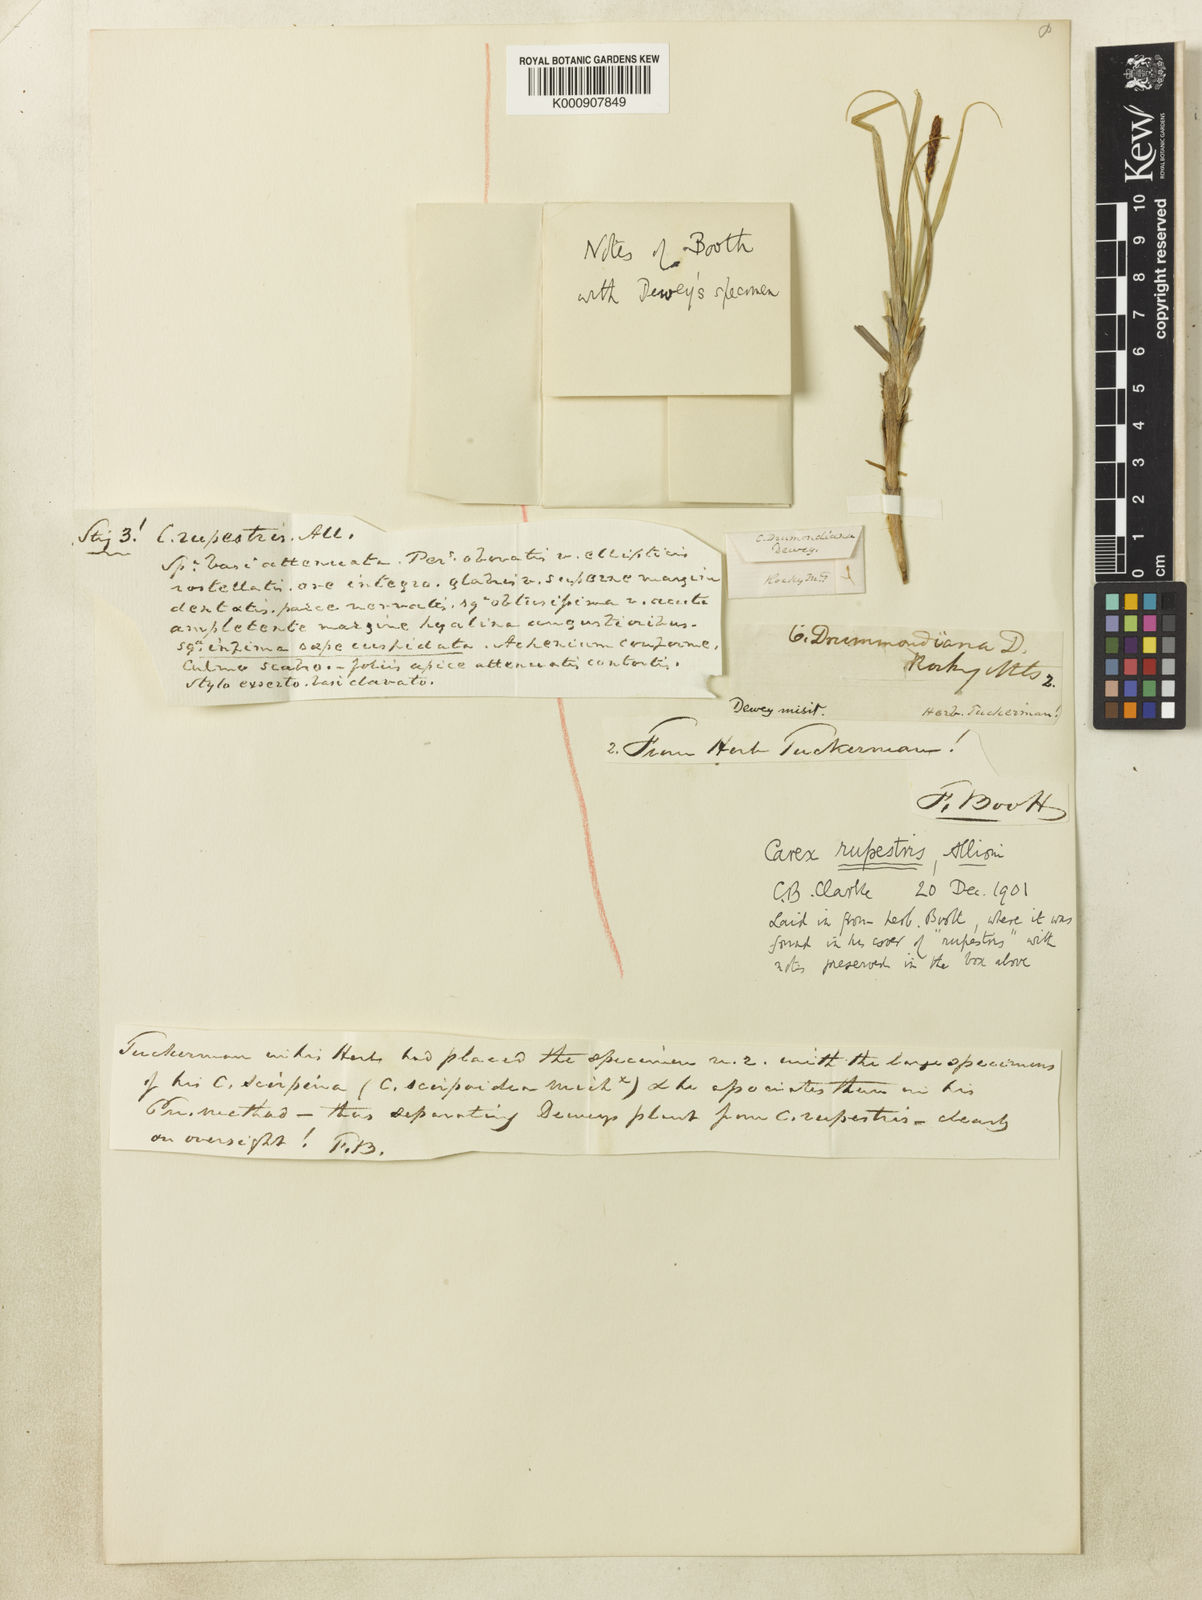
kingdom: Plantae
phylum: Tracheophyta
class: Liliopsida
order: Poales
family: Cyperaceae
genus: Carex
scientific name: Carex rupestris
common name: Rock sedge
